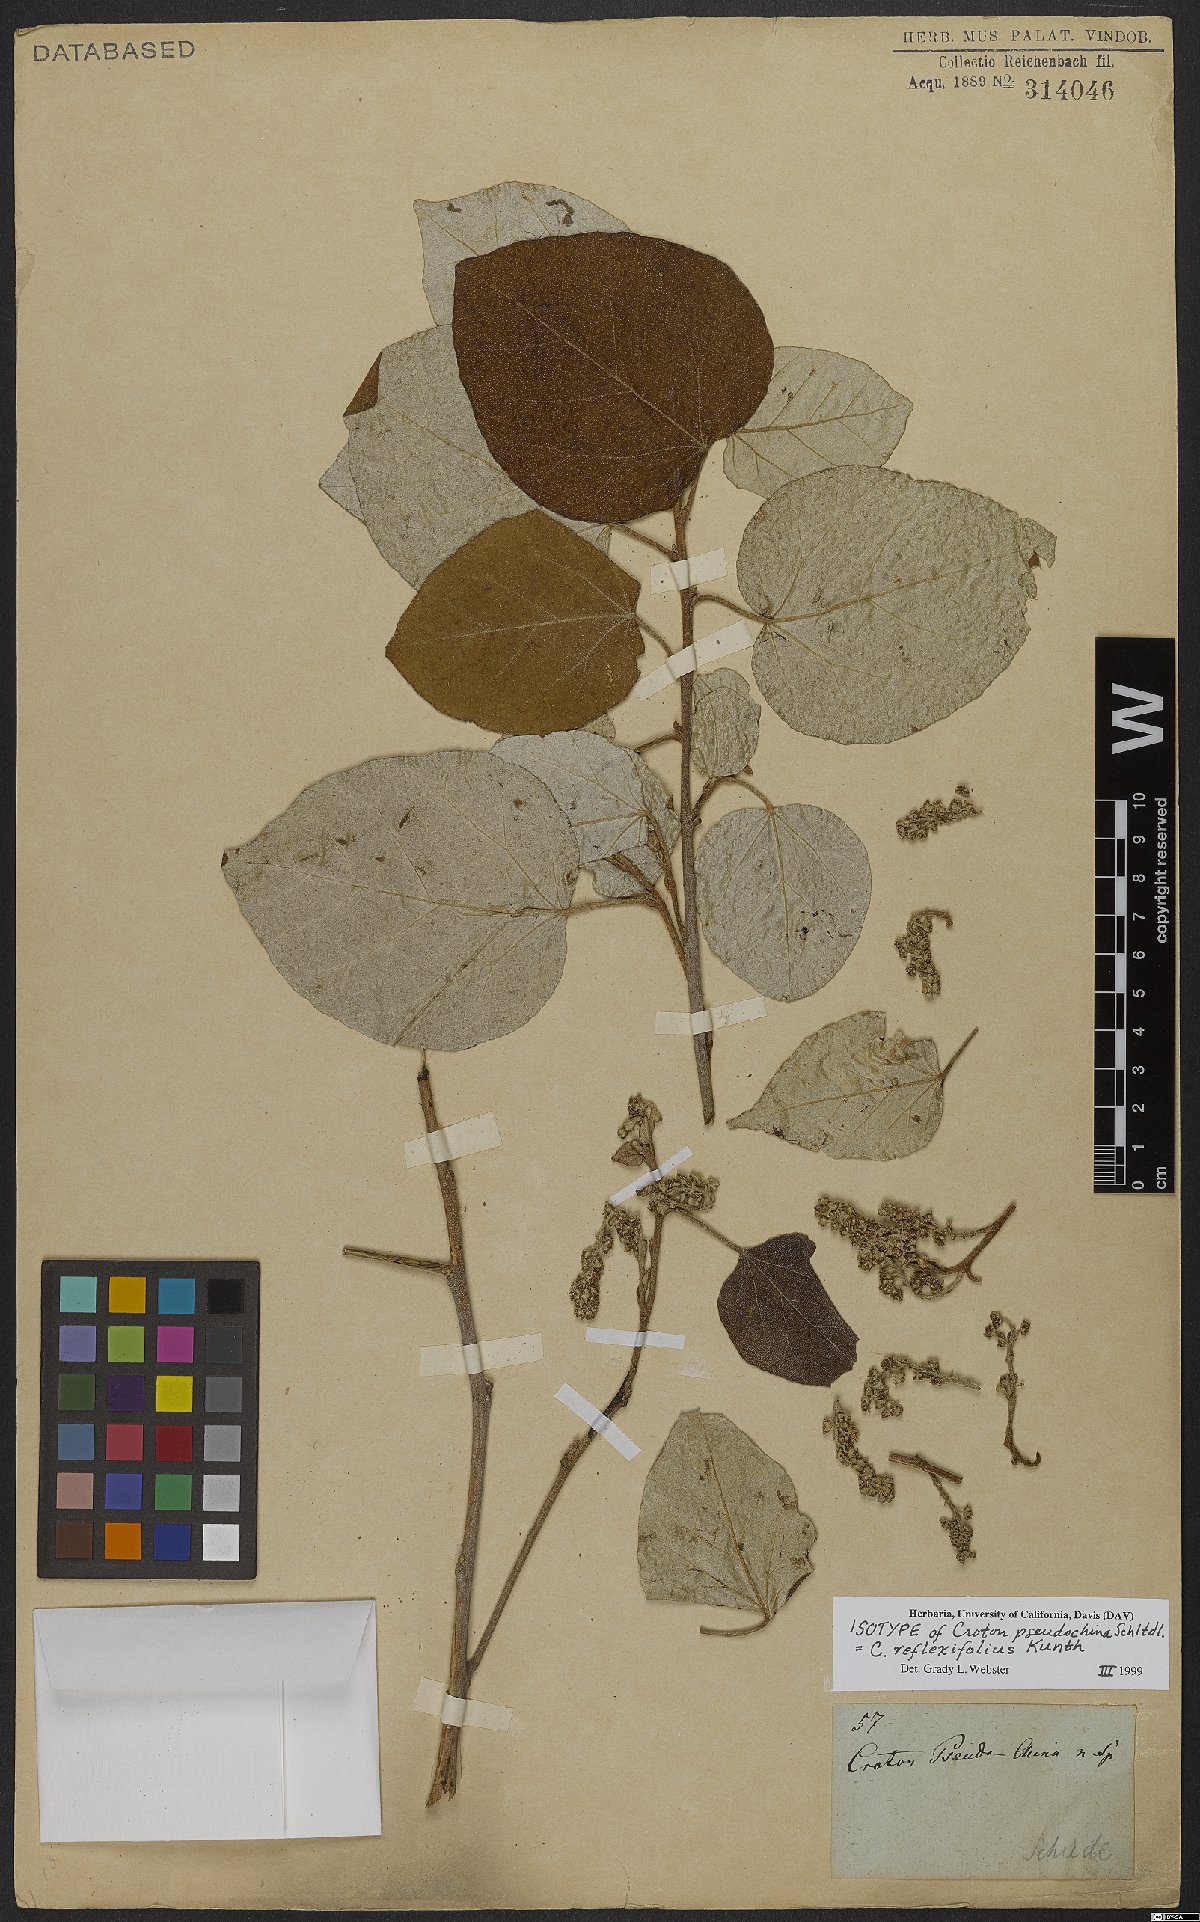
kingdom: Plantae
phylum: Tracheophyta
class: Magnoliopsida
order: Malpighiales
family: Euphorbiaceae
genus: Croton
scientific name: Croton reflexifolius
